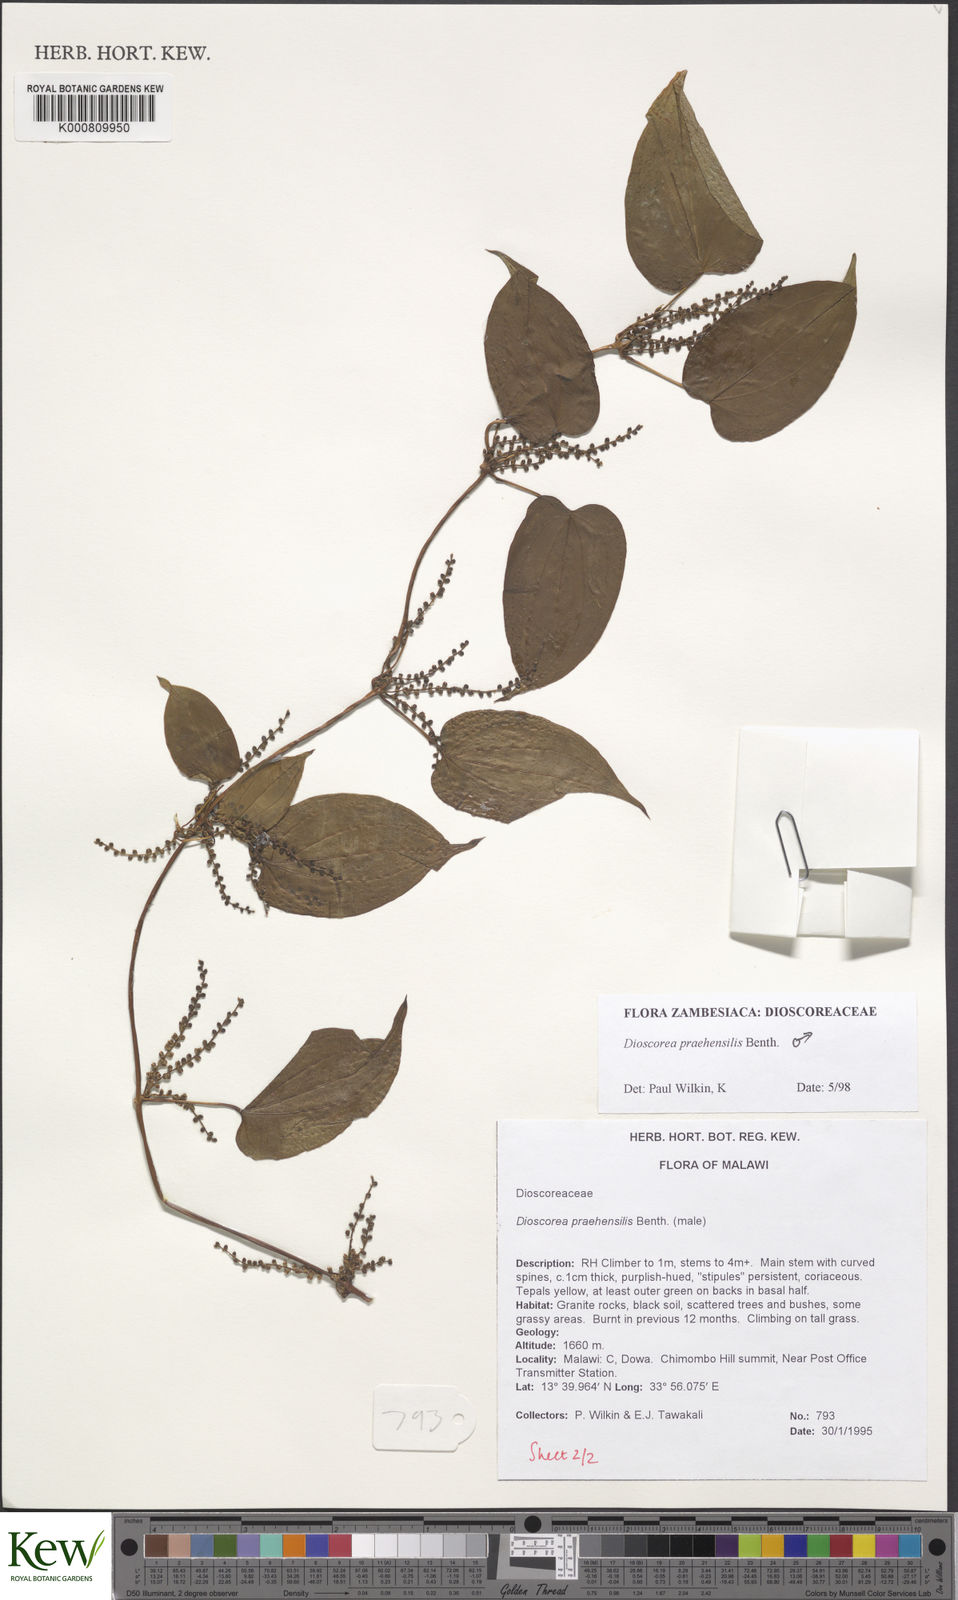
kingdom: Plantae
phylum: Tracheophyta
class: Liliopsida
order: Dioscoreales
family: Dioscoreaceae
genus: Dioscorea
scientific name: Dioscorea praehensilis
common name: Bush yam
